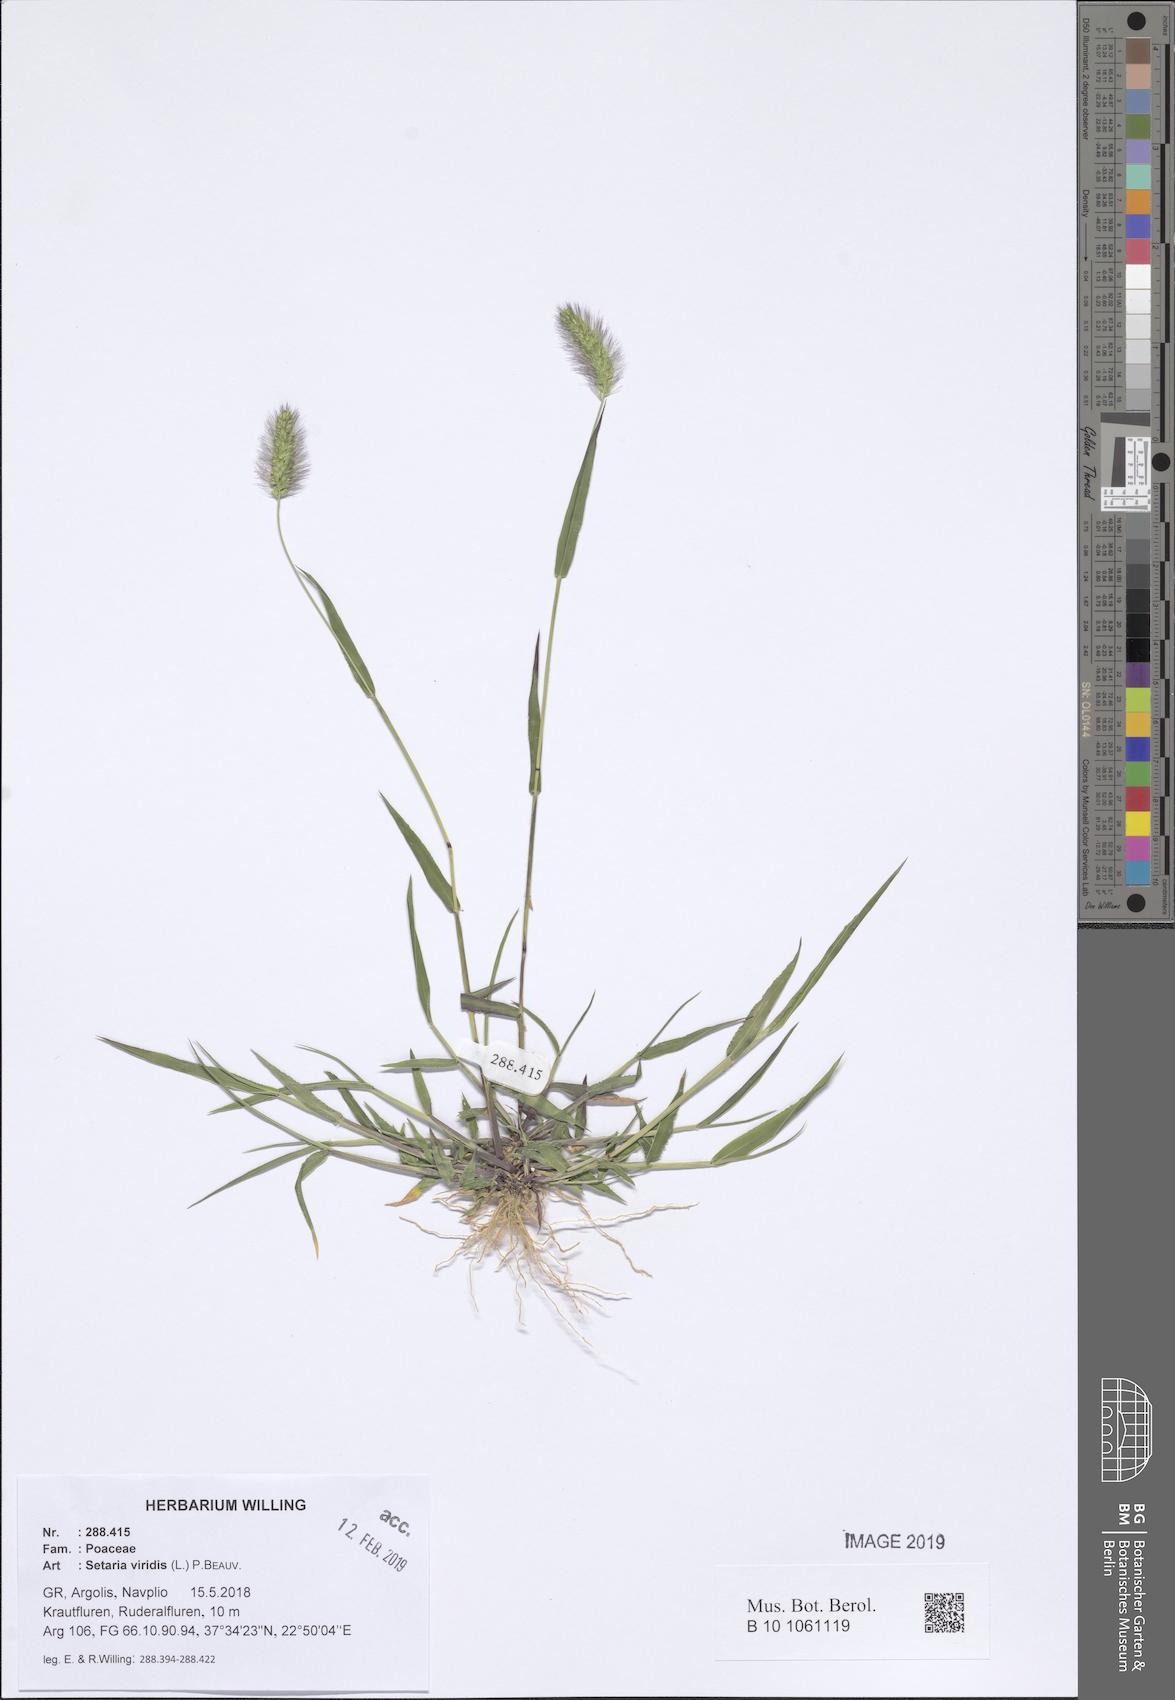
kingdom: Plantae
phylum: Tracheophyta
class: Liliopsida
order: Poales
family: Poaceae
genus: Setaria
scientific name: Setaria viridis
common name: Green bristlegrass
